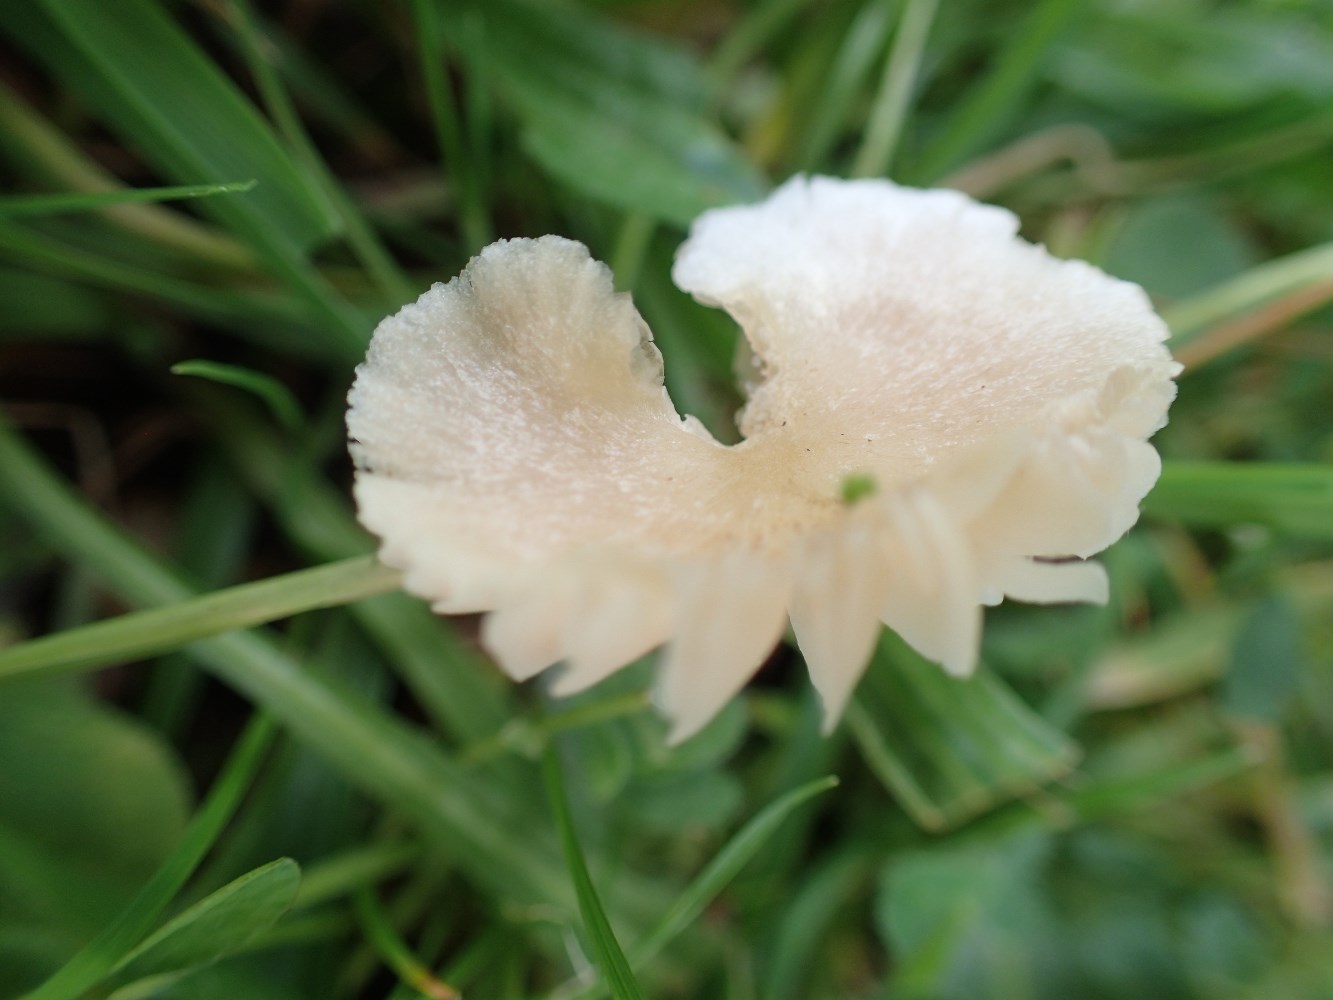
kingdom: Fungi
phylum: Basidiomycota
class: Agaricomycetes
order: Agaricales
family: Entolomataceae
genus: Entoloma
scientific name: Entoloma sericellum
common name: silkehvid rødblad
